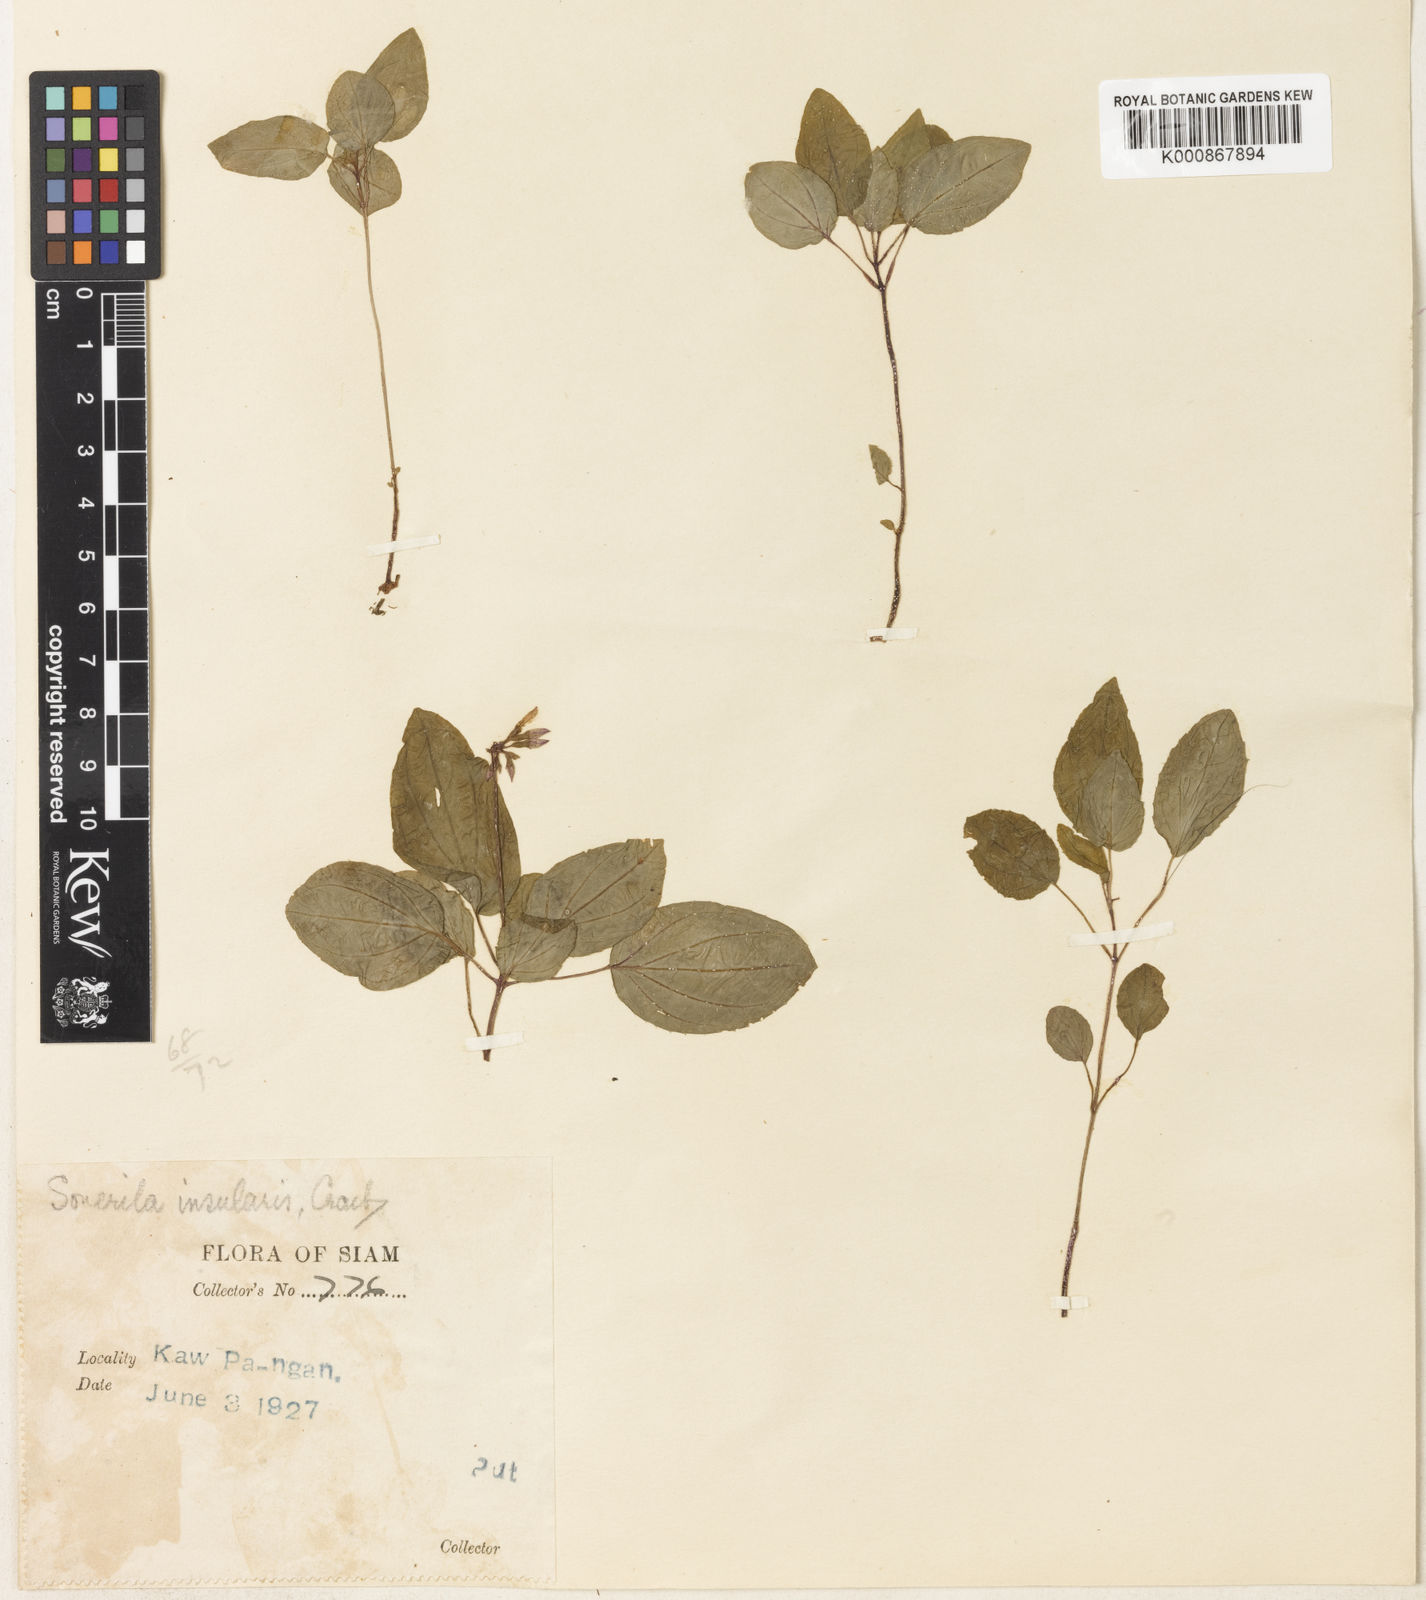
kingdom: Plantae
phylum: Tracheophyta
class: Magnoliopsida
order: Myrtales
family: Melastomataceae
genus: Sonerila
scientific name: Sonerila griffithii
